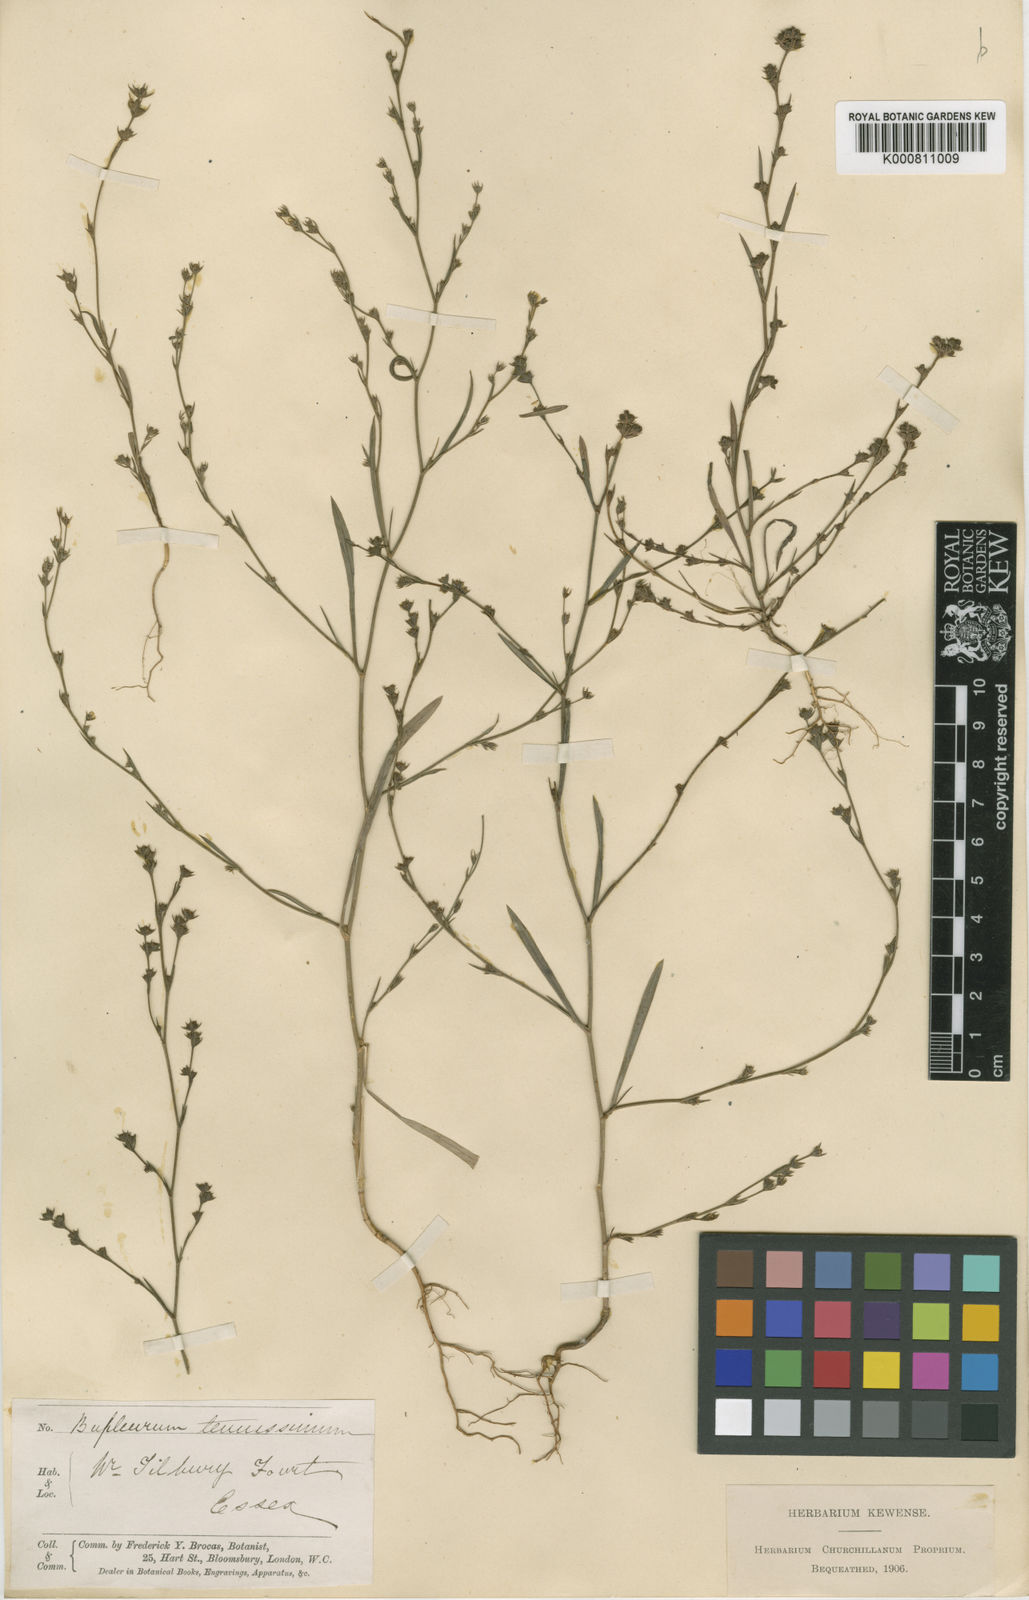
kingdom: Plantae
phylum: Tracheophyta
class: Magnoliopsida
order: Apiales
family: Apiaceae
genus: Bupleurum
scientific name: Bupleurum tenuissimum
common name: Slender hare's-ear
